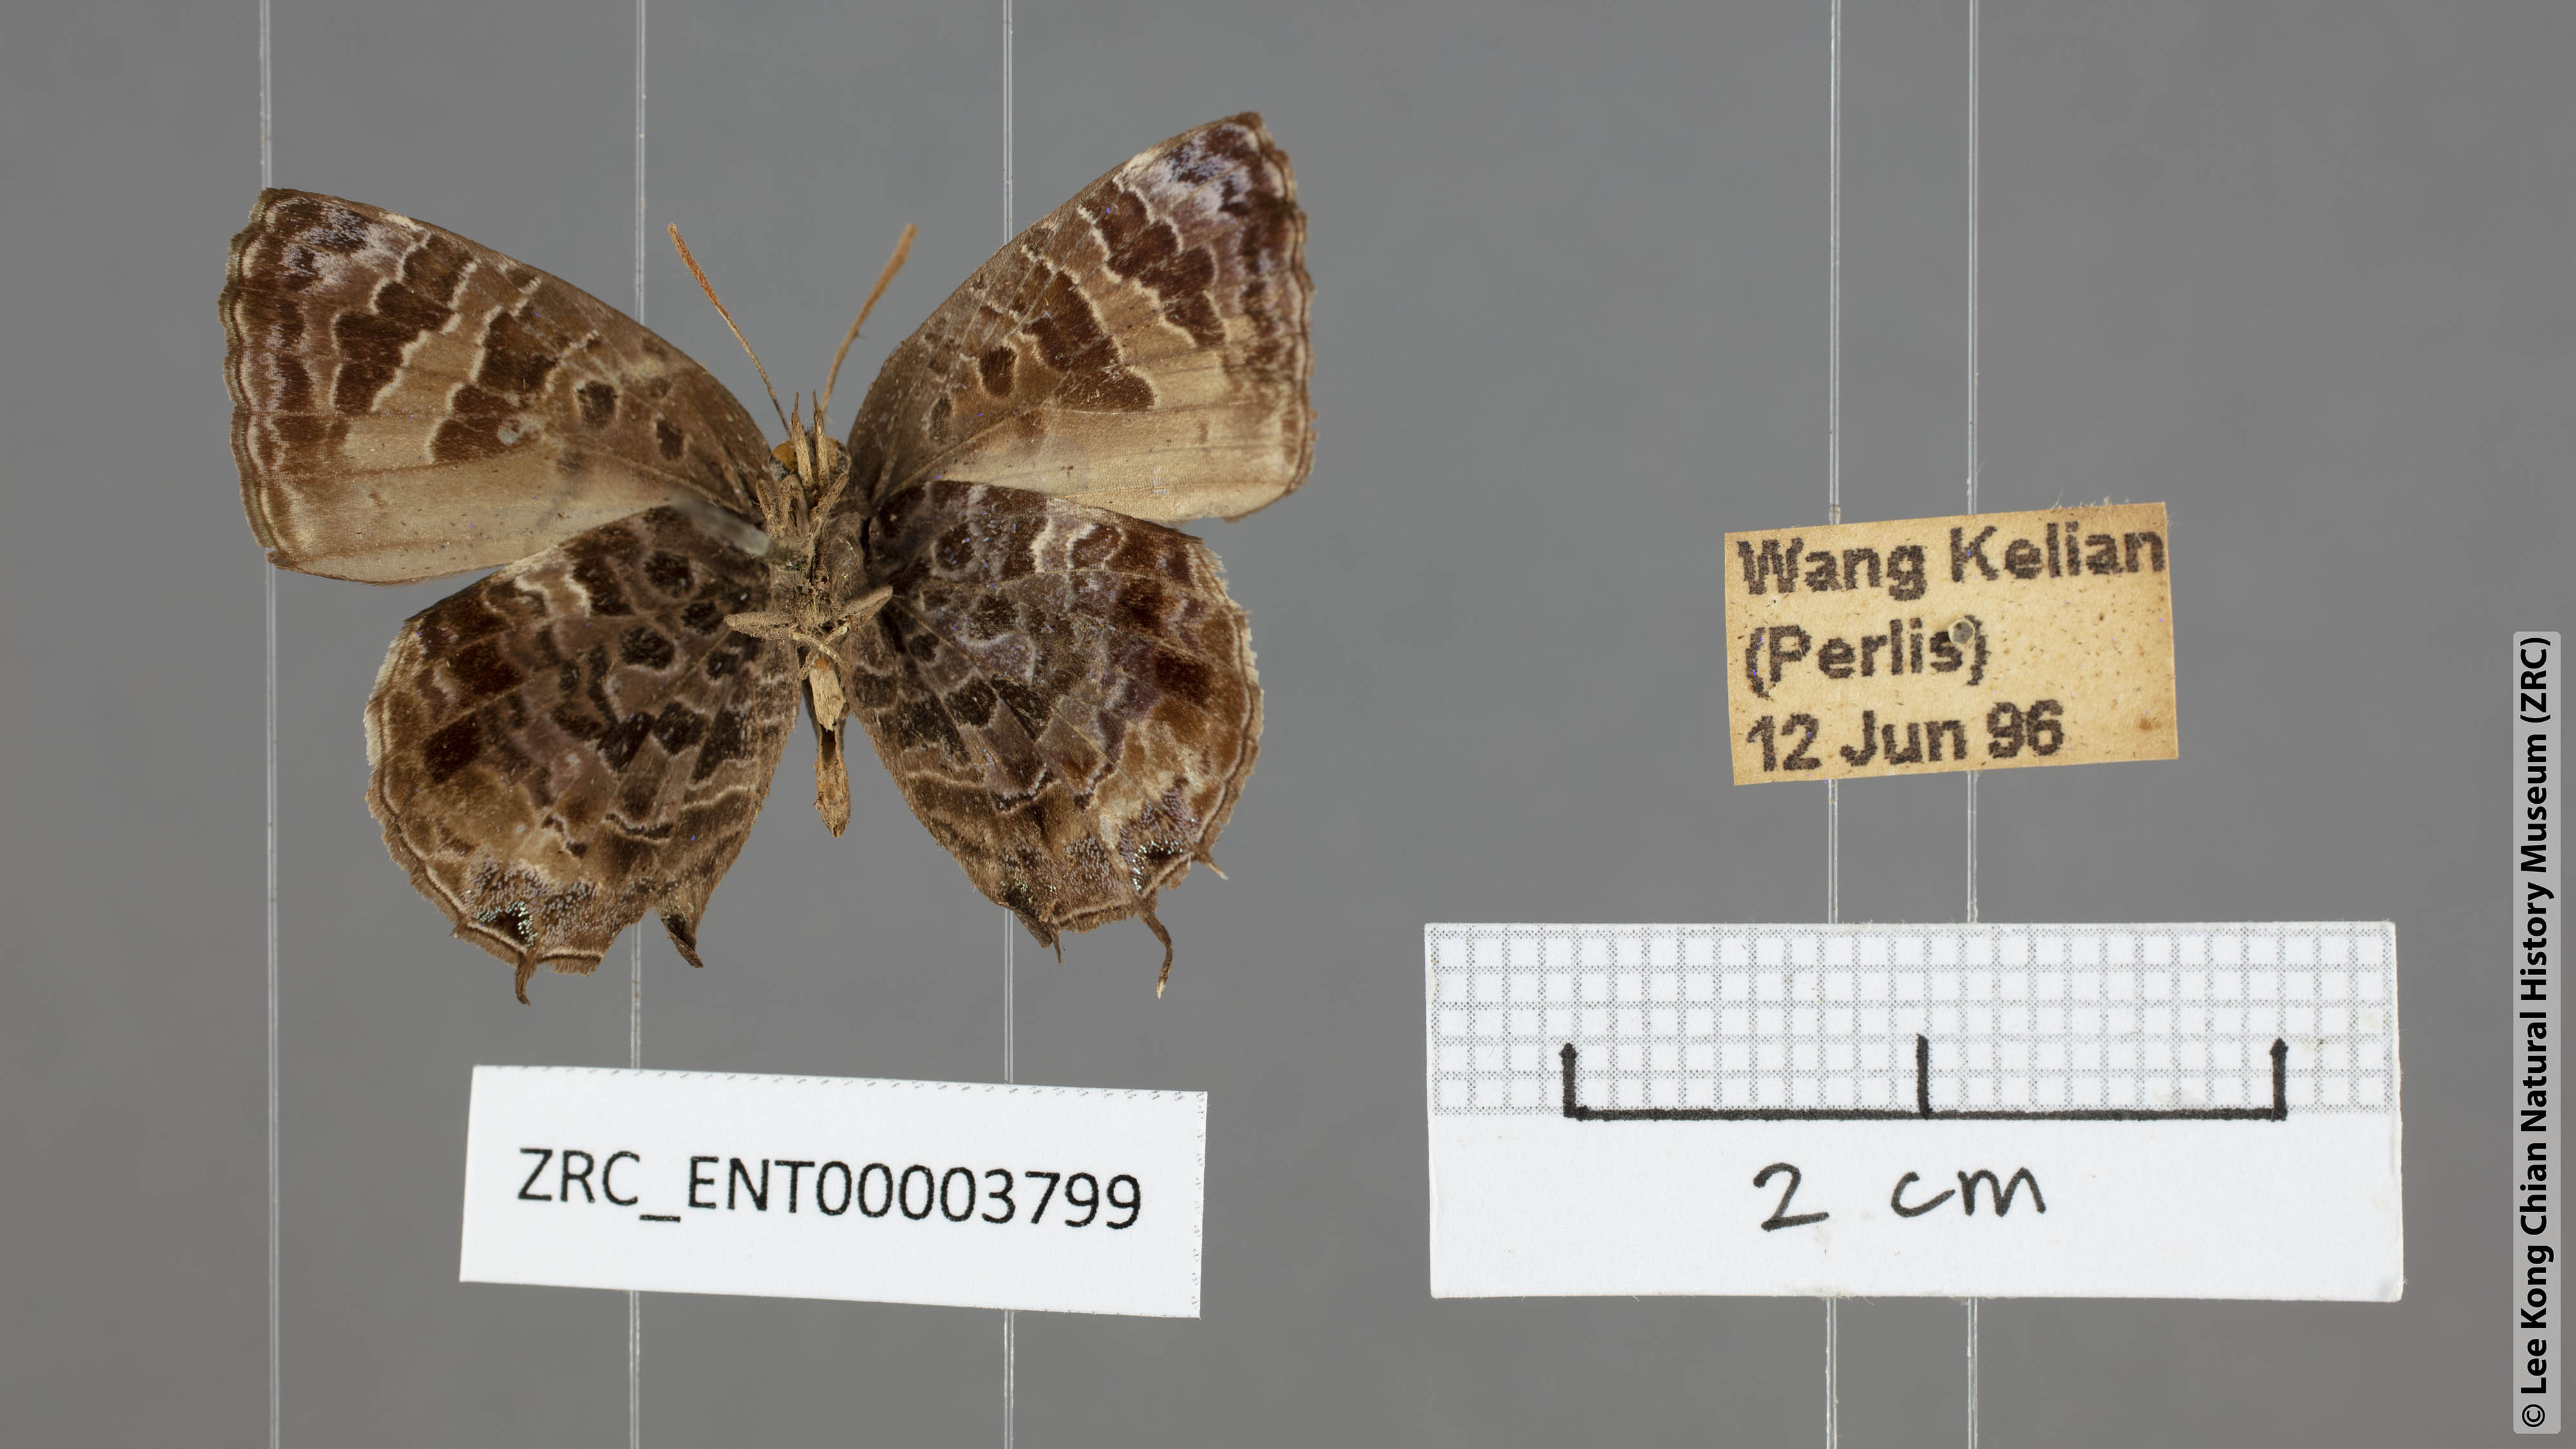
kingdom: Animalia
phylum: Arthropoda
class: Insecta
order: Lepidoptera
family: Lycaenidae
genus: Arhopala
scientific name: Arhopala abseus
